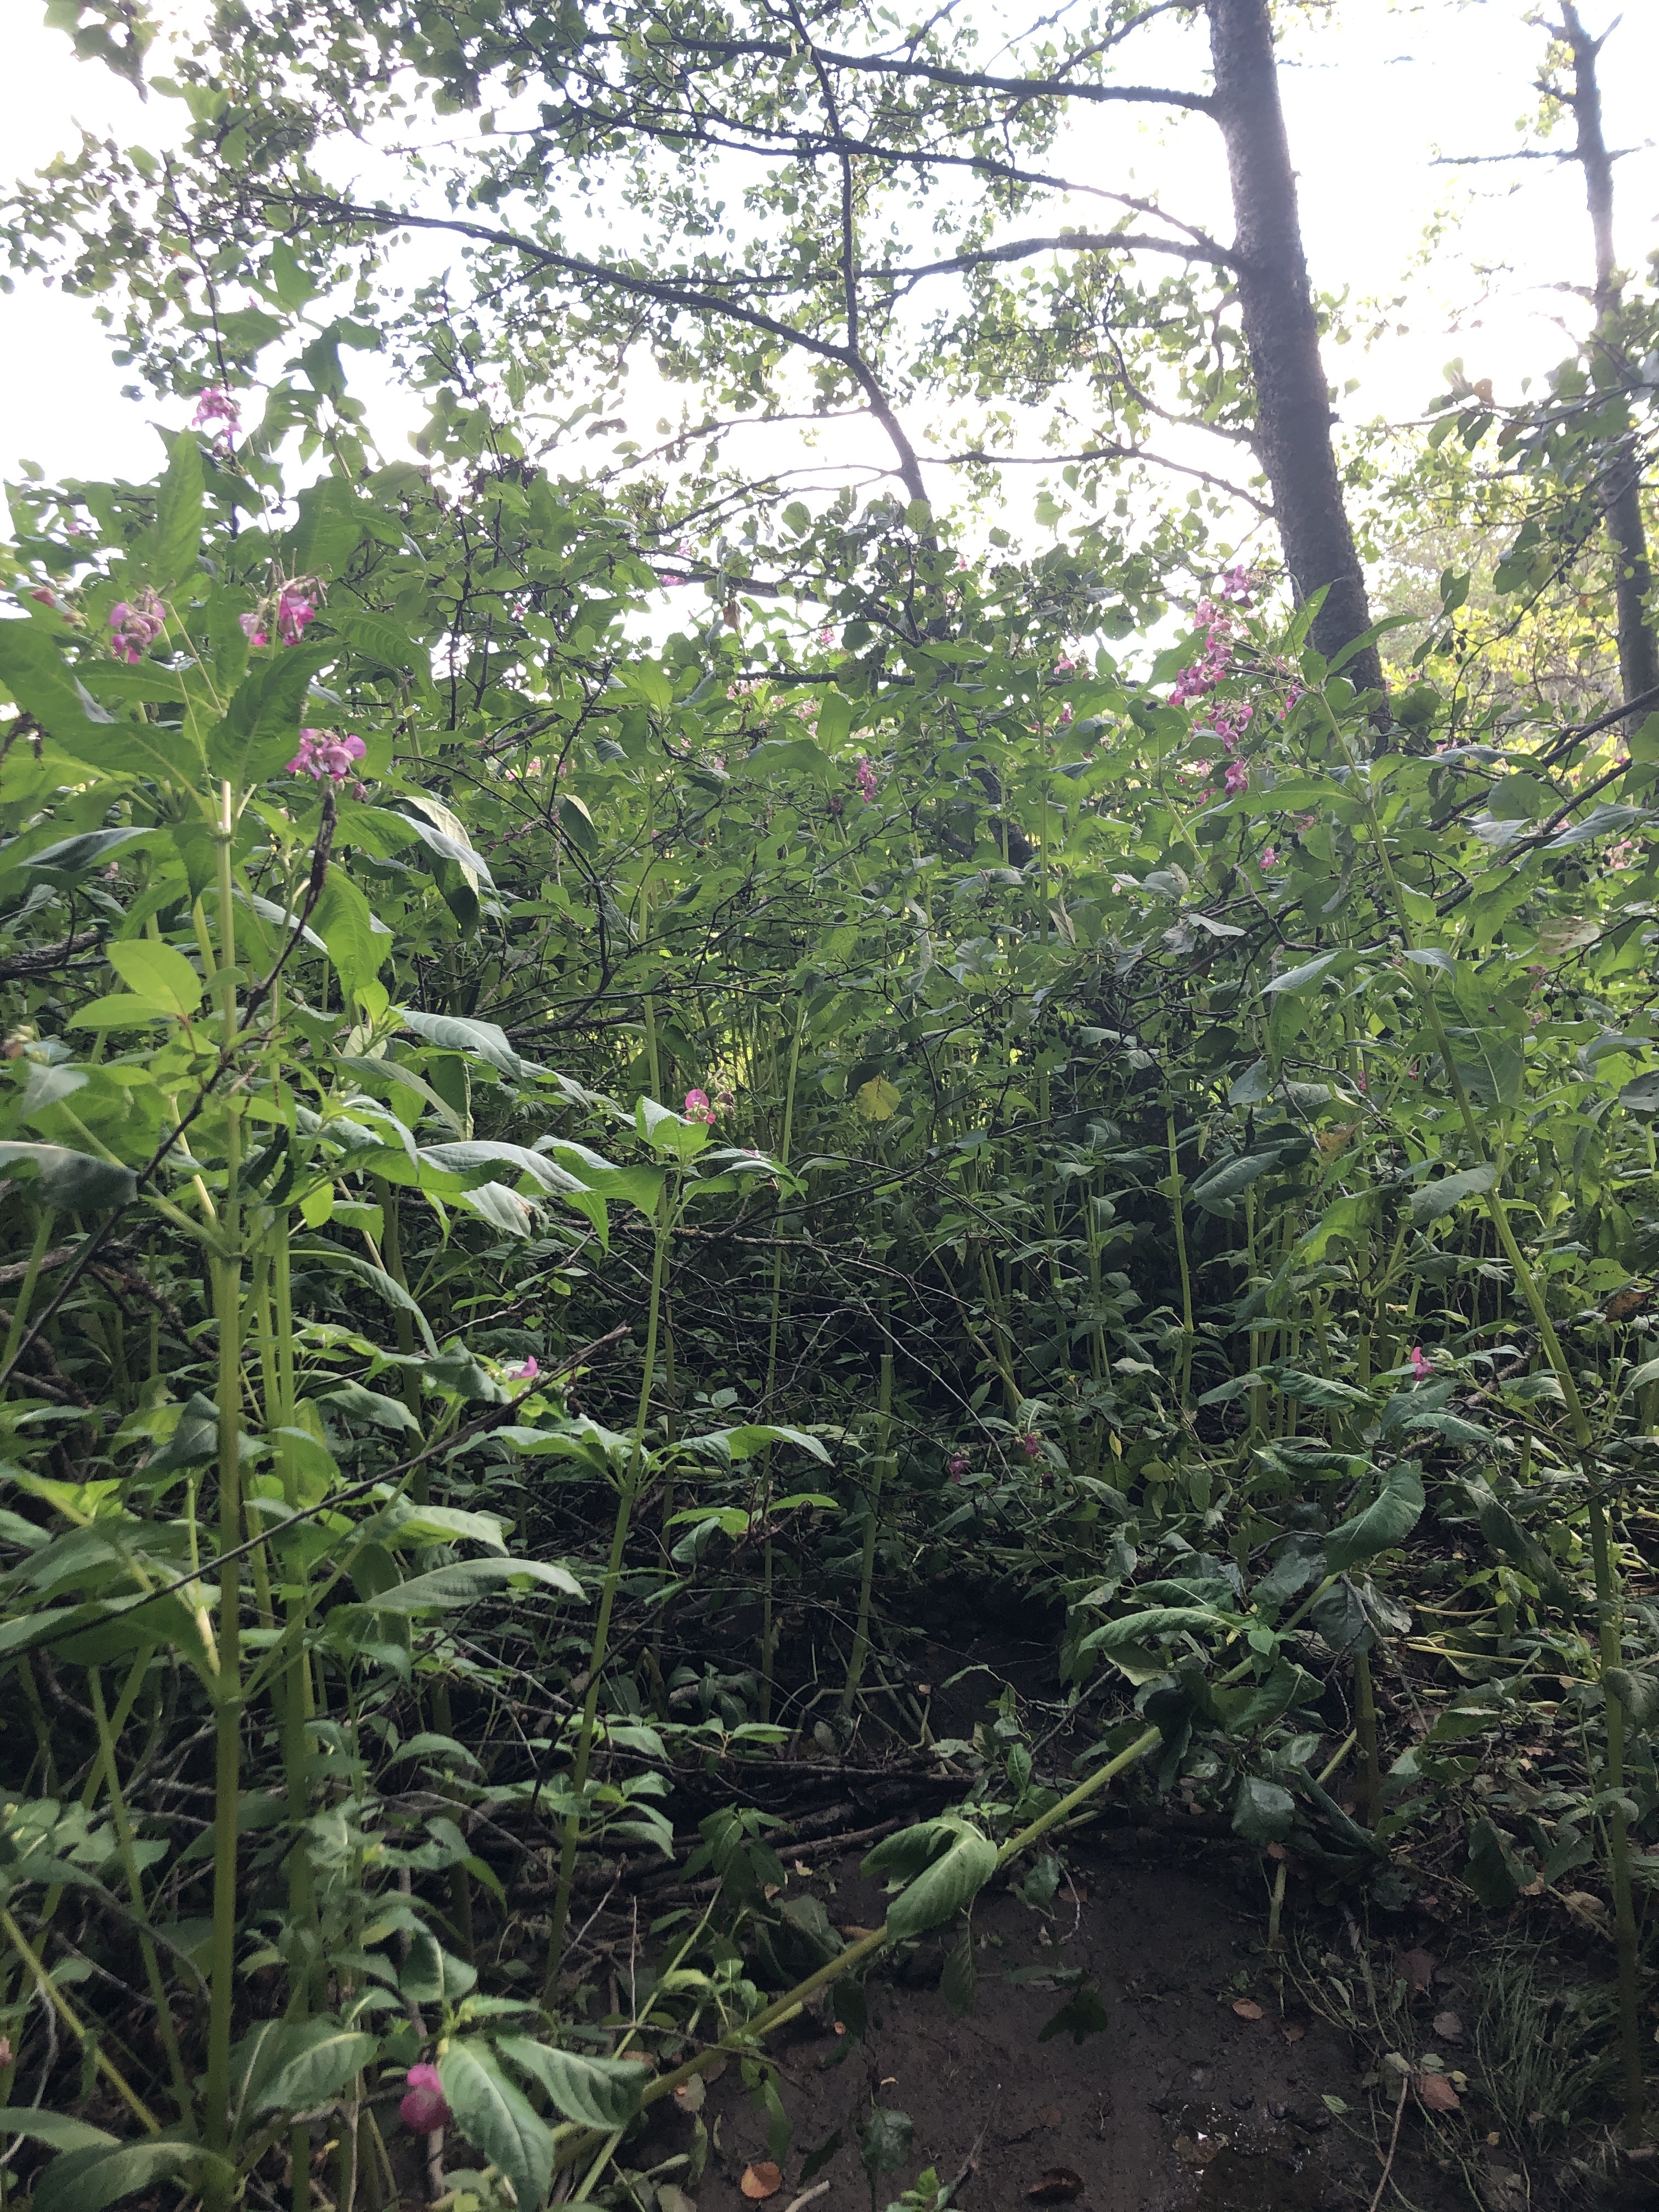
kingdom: Plantae
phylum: Tracheophyta
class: Magnoliopsida
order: Ericales
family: Balsaminaceae
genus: Impatiens
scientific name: Impatiens glandulifera
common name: Himalayan balsam
